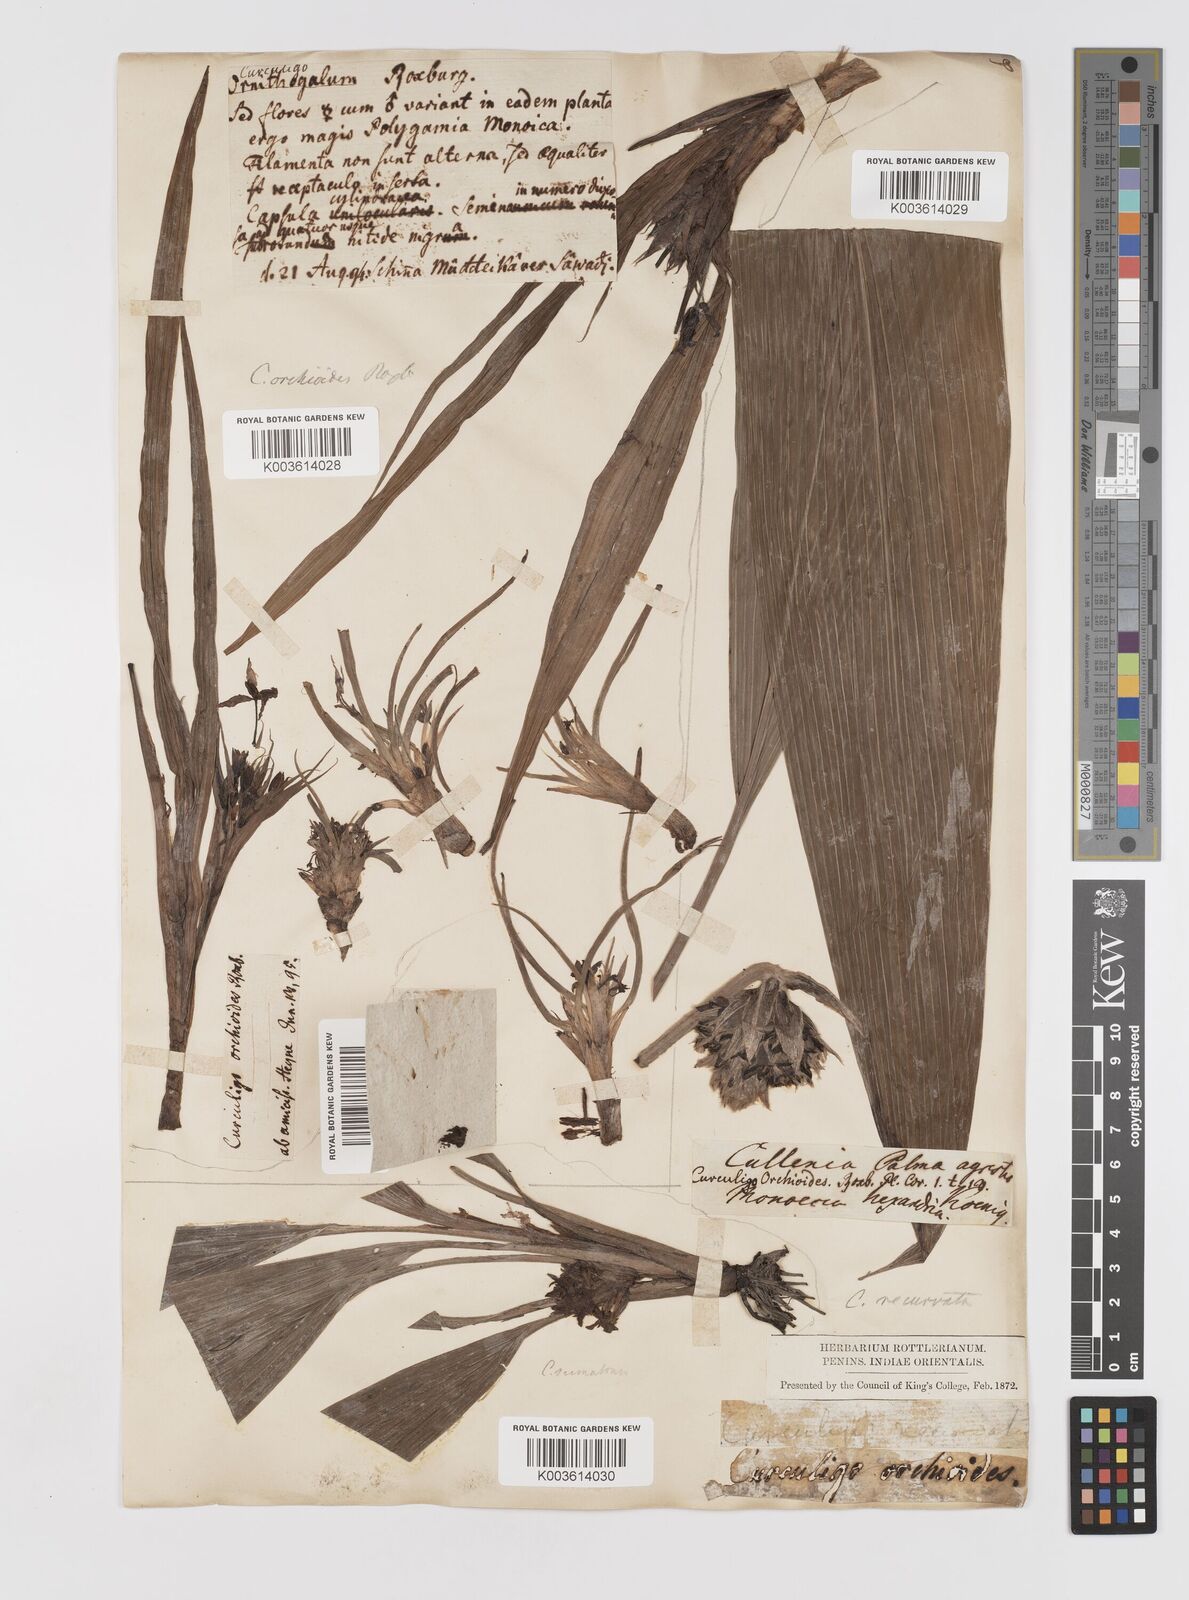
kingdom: Plantae
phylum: Tracheophyta
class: Liliopsida
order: Asparagales
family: Hypoxidaceae
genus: Curculigo
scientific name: Curculigo orchioides
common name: Golden eye-grass
